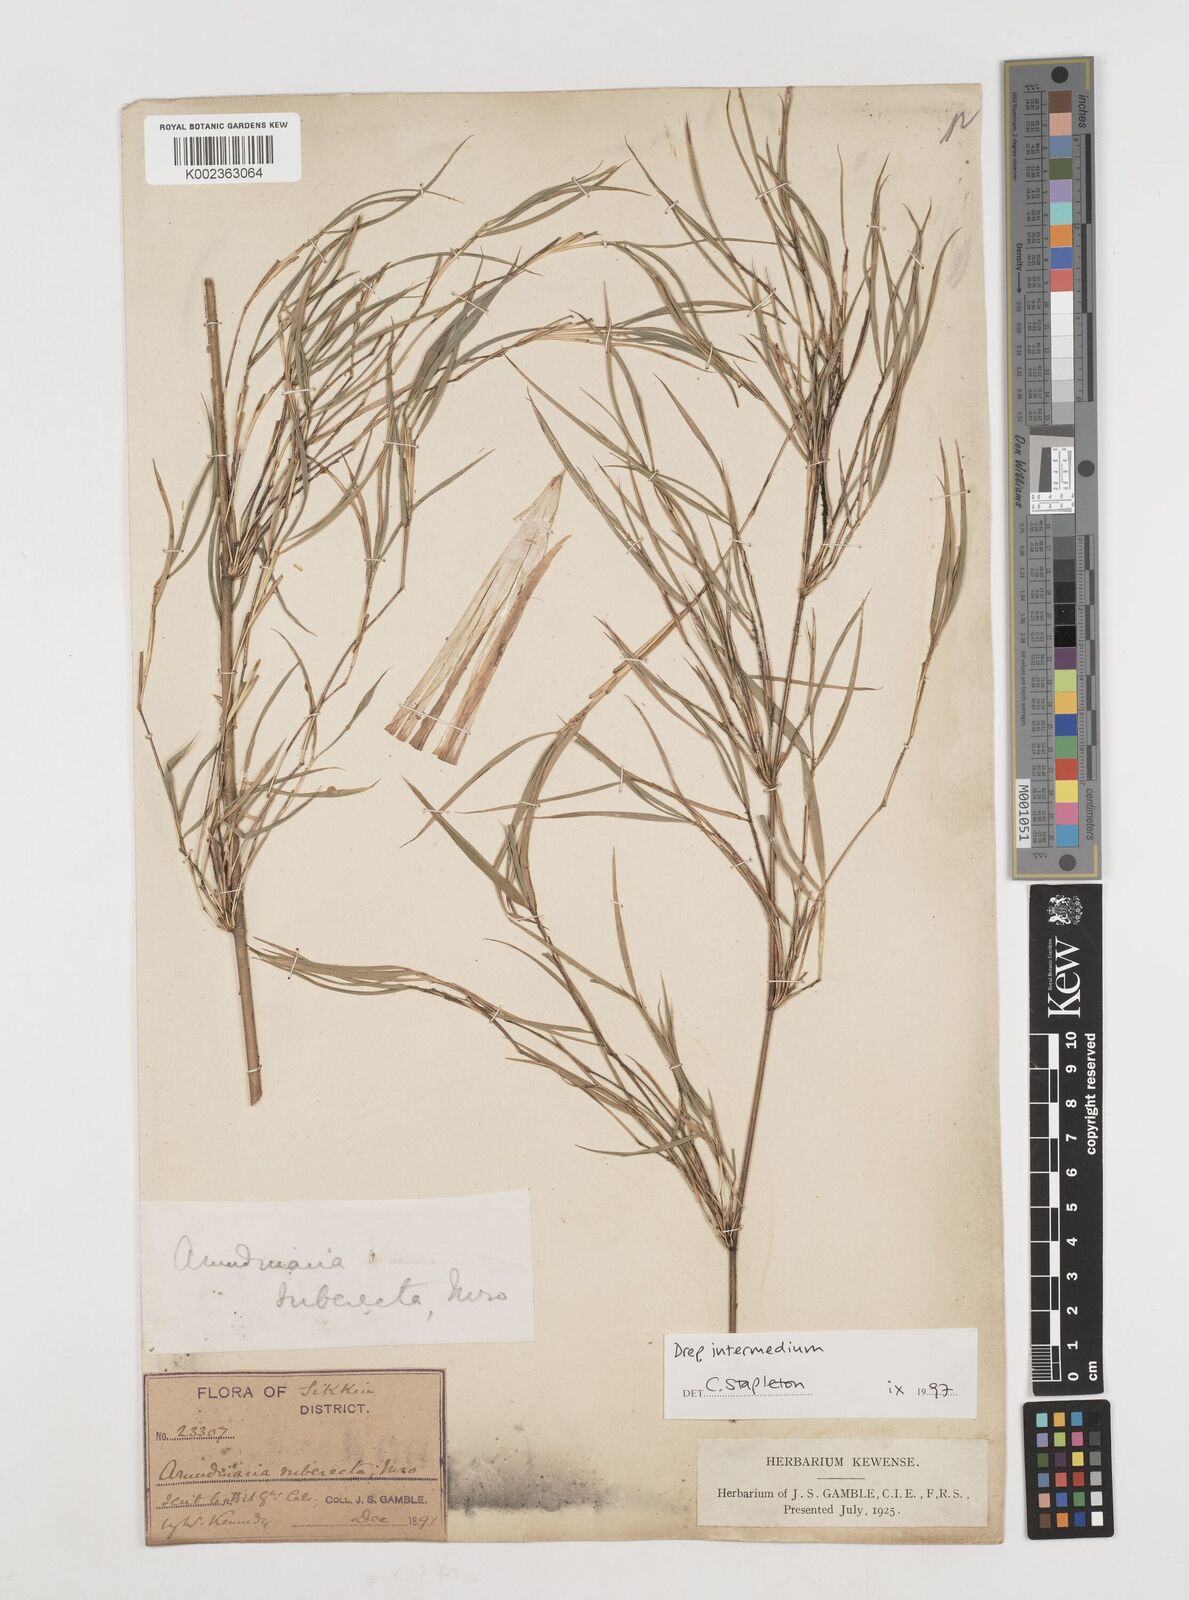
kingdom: Plantae
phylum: Tracheophyta
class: Liliopsida
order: Poales
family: Poaceae
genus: Drepanostachyum
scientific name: Drepanostachyum khasianum
